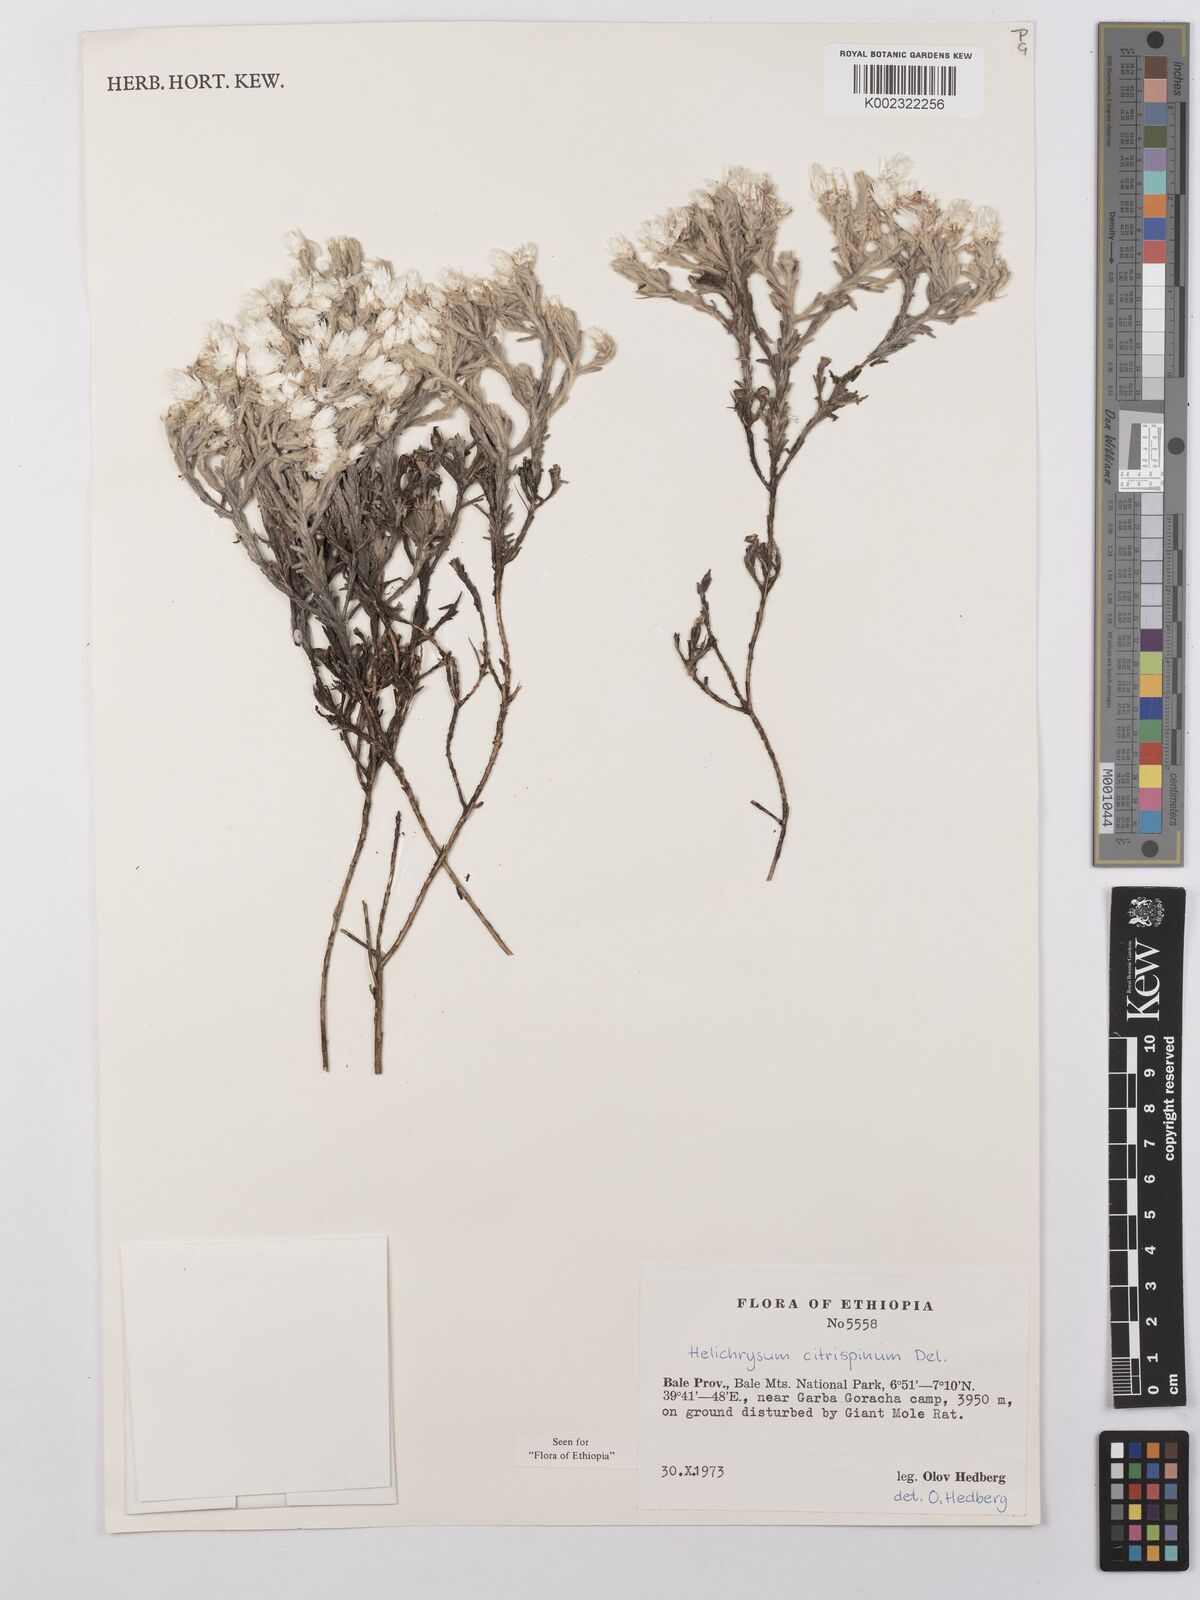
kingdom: Plantae
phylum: Tracheophyta
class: Magnoliopsida
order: Asterales
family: Asteraceae
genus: Helichrysum
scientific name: Helichrysum citrispinum
